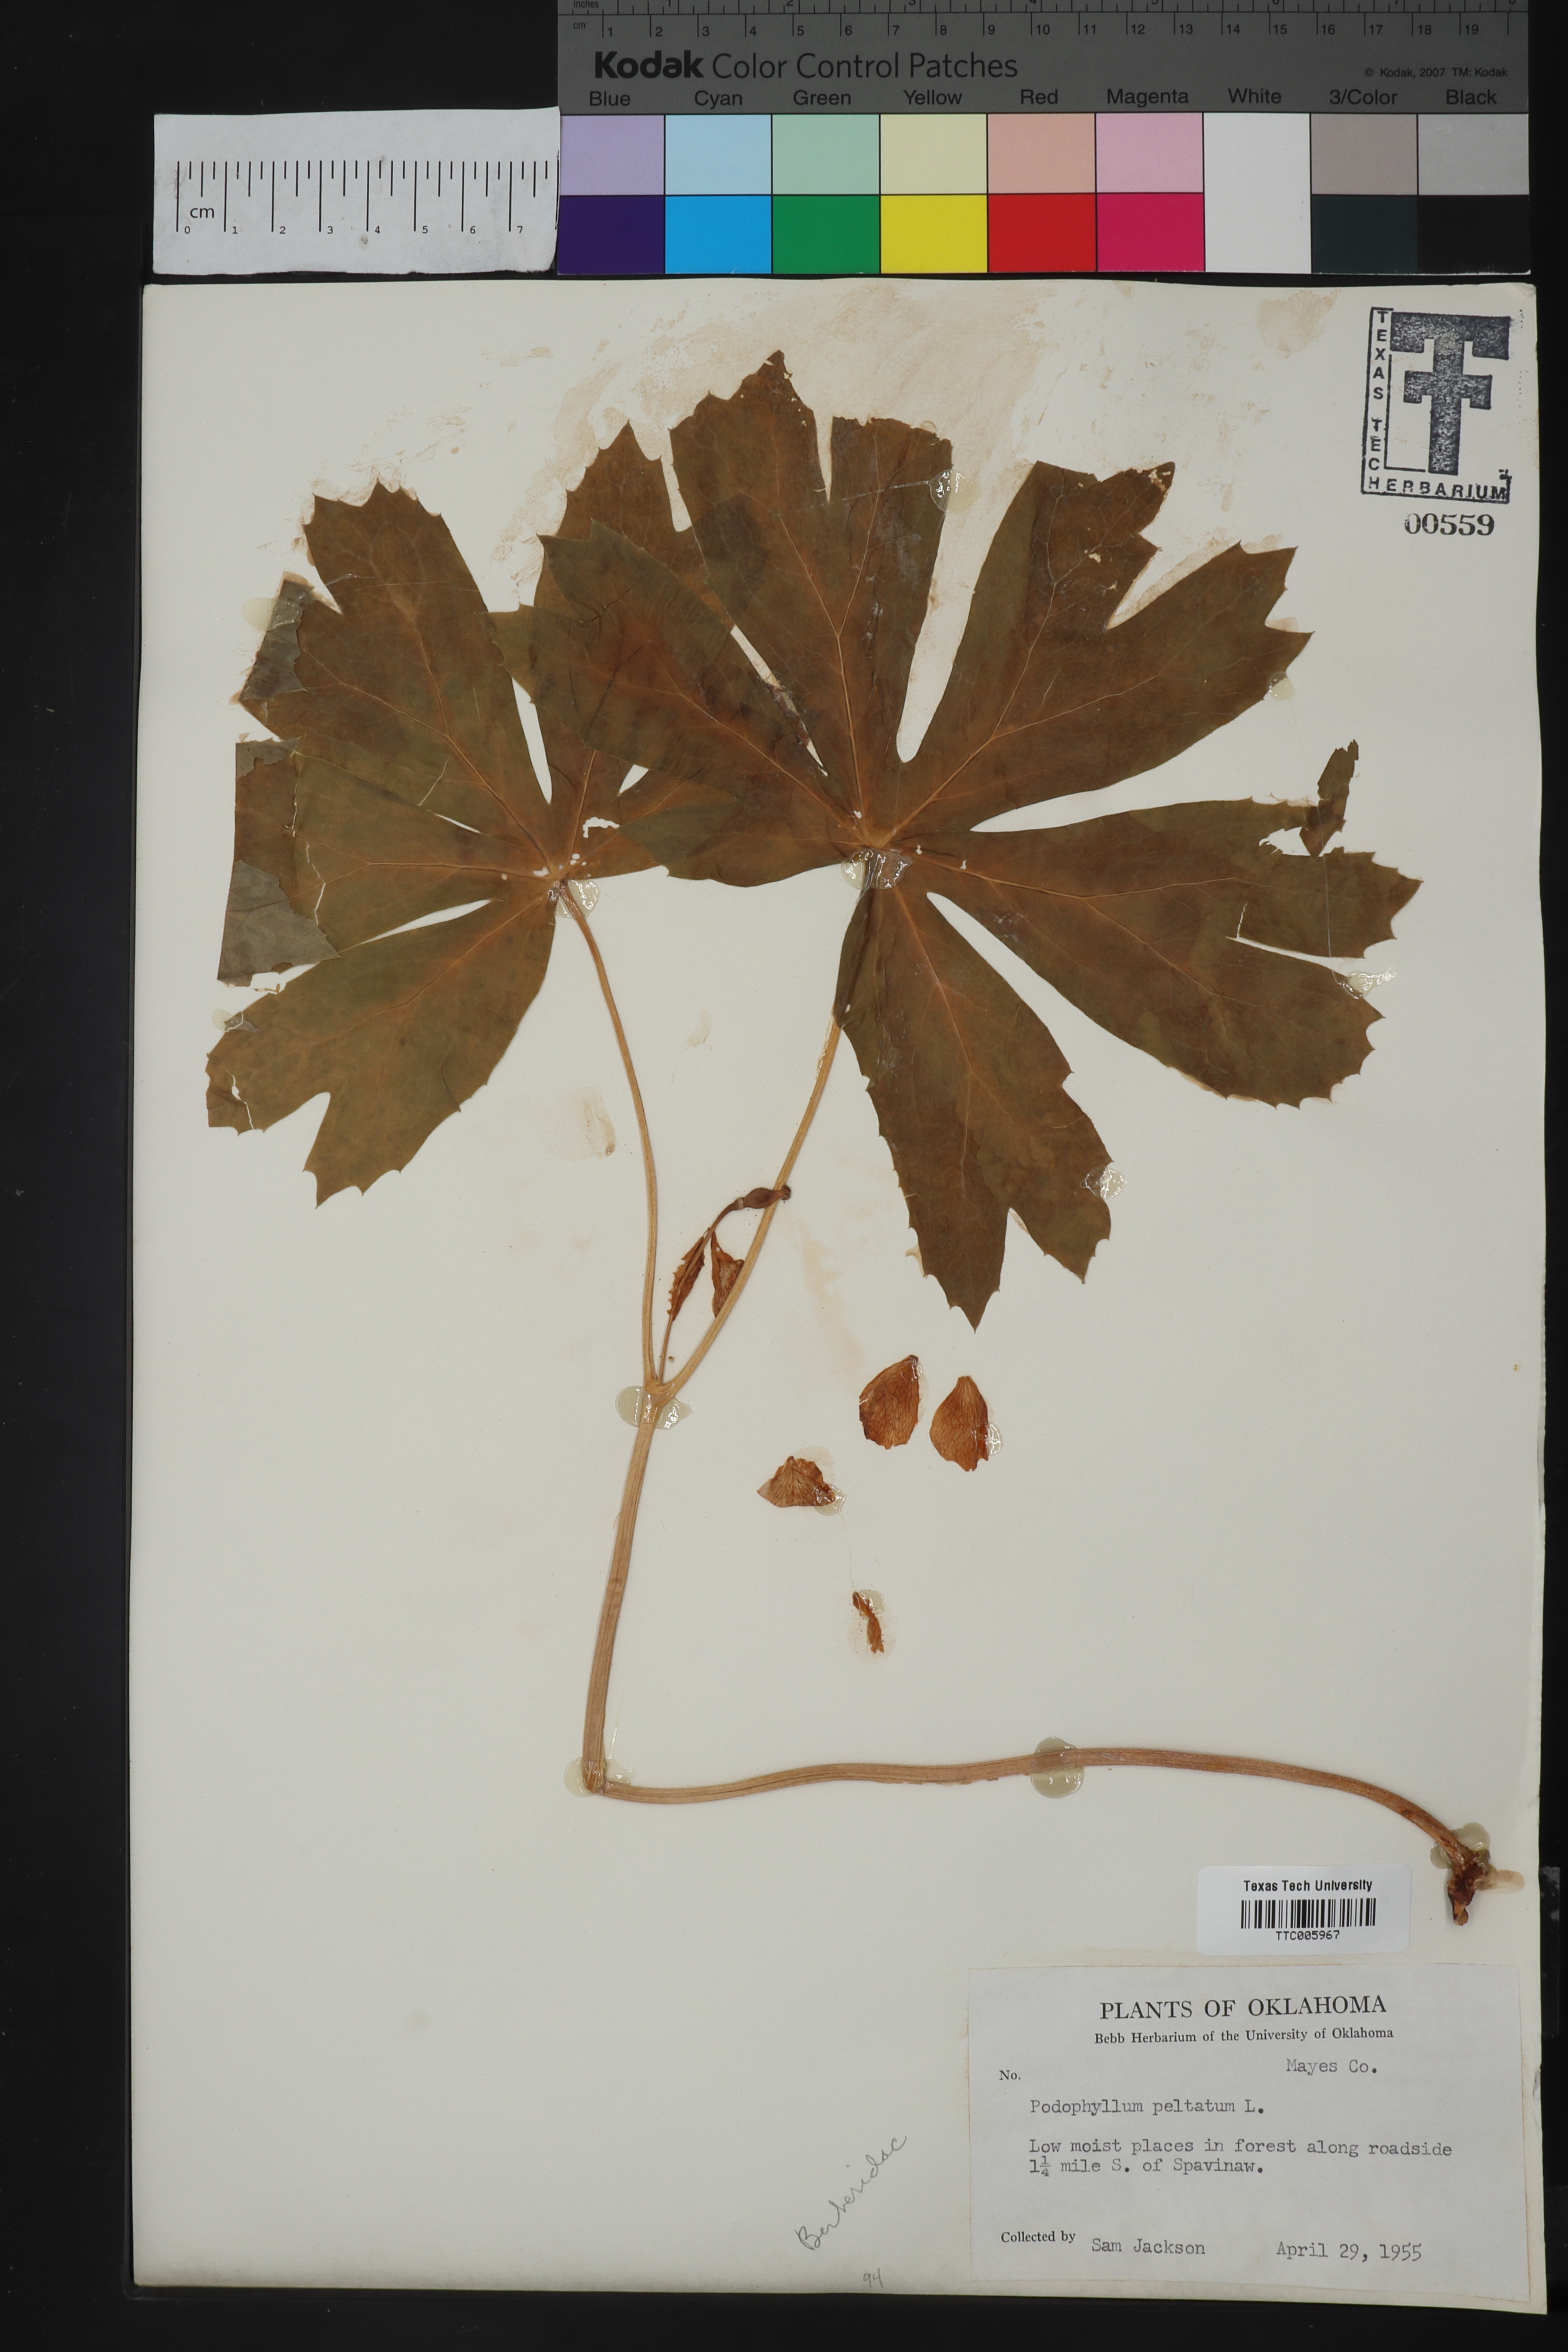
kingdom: Plantae
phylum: Tracheophyta
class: Magnoliopsida
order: Ranunculales
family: Berberidaceae
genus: Podophyllum
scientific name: Podophyllum peltatum
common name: Wild mandrake
